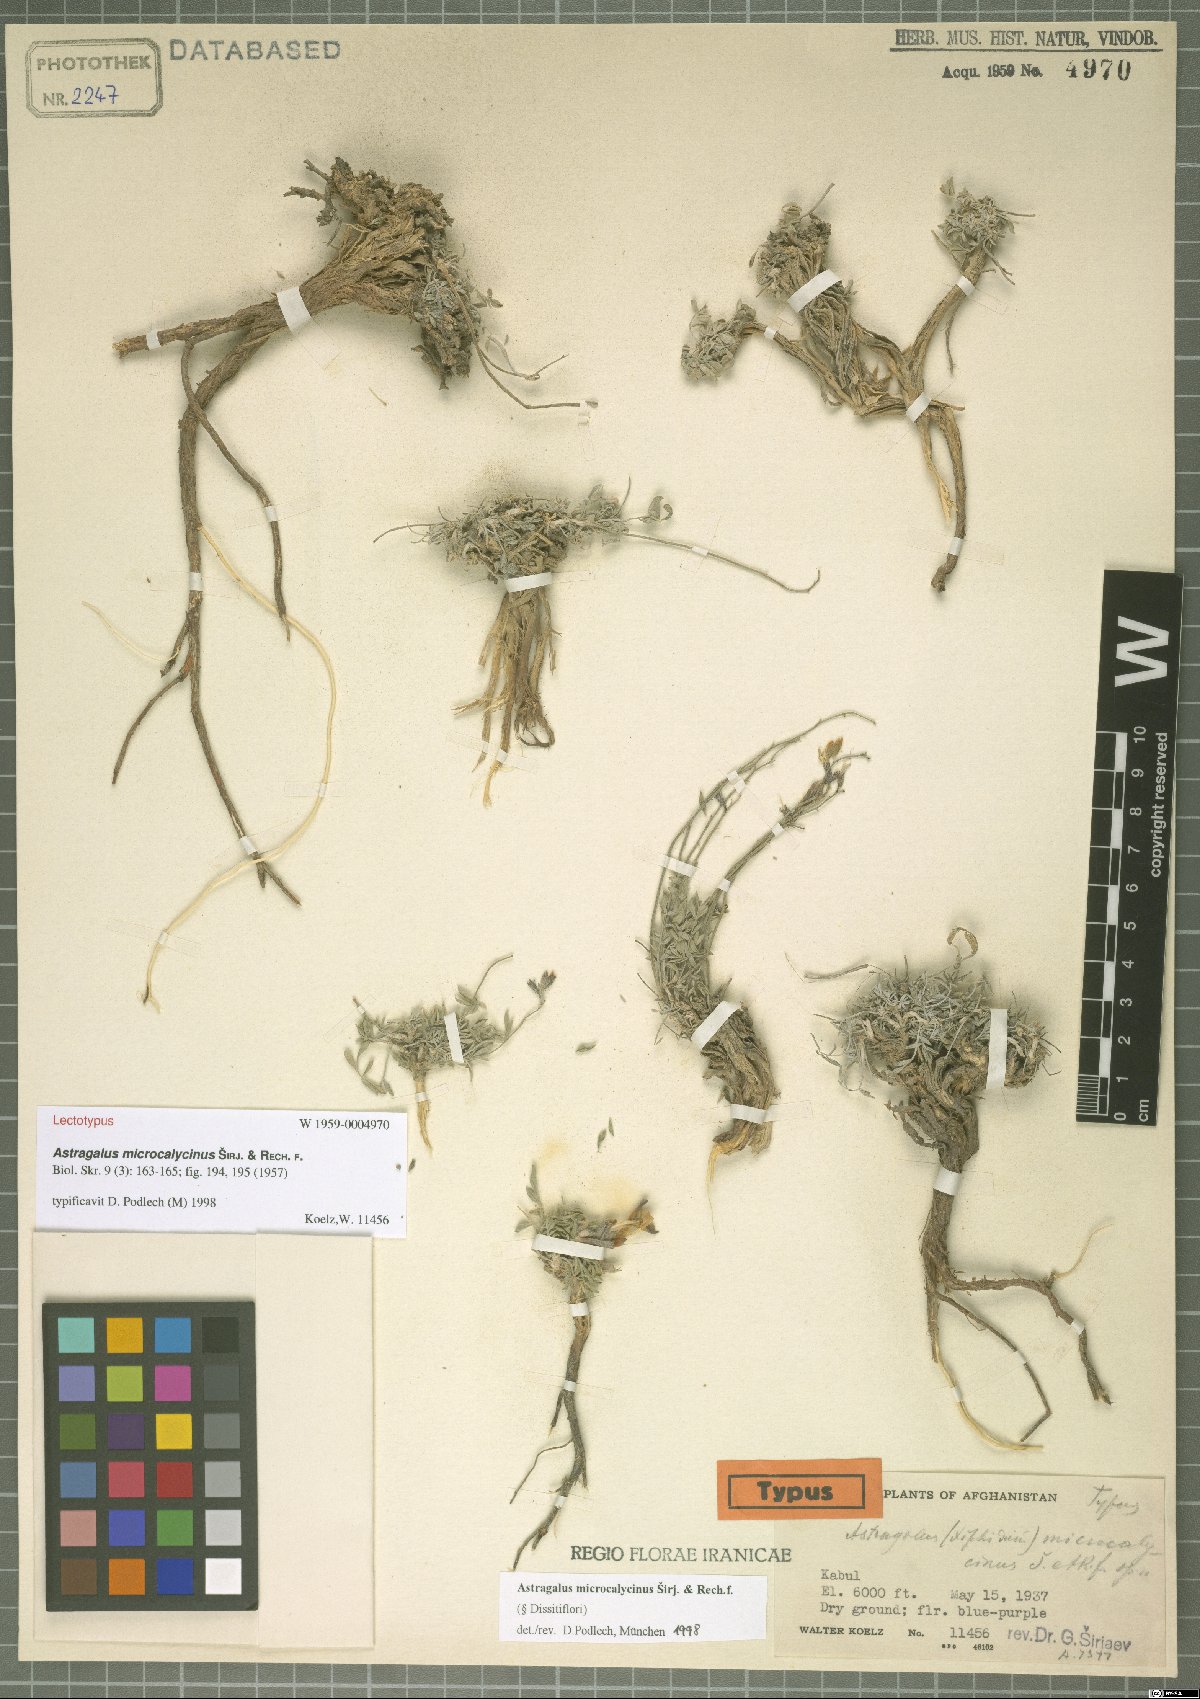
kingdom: Plantae
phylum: Tracheophyta
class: Magnoliopsida
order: Fabales
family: Fabaceae
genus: Astragalus
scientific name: Astragalus microcalycinus
